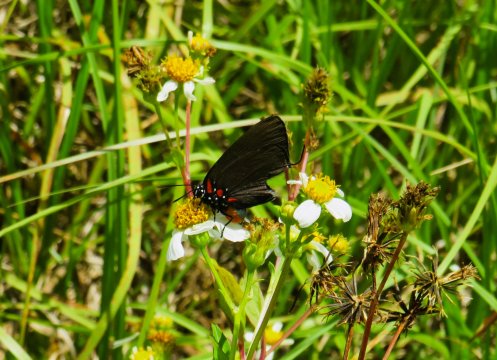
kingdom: Animalia
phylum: Arthropoda
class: Insecta
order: Lepidoptera
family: Lycaenidae
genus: Atlides
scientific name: Atlides halesus
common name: Great Purple Hairstreak
